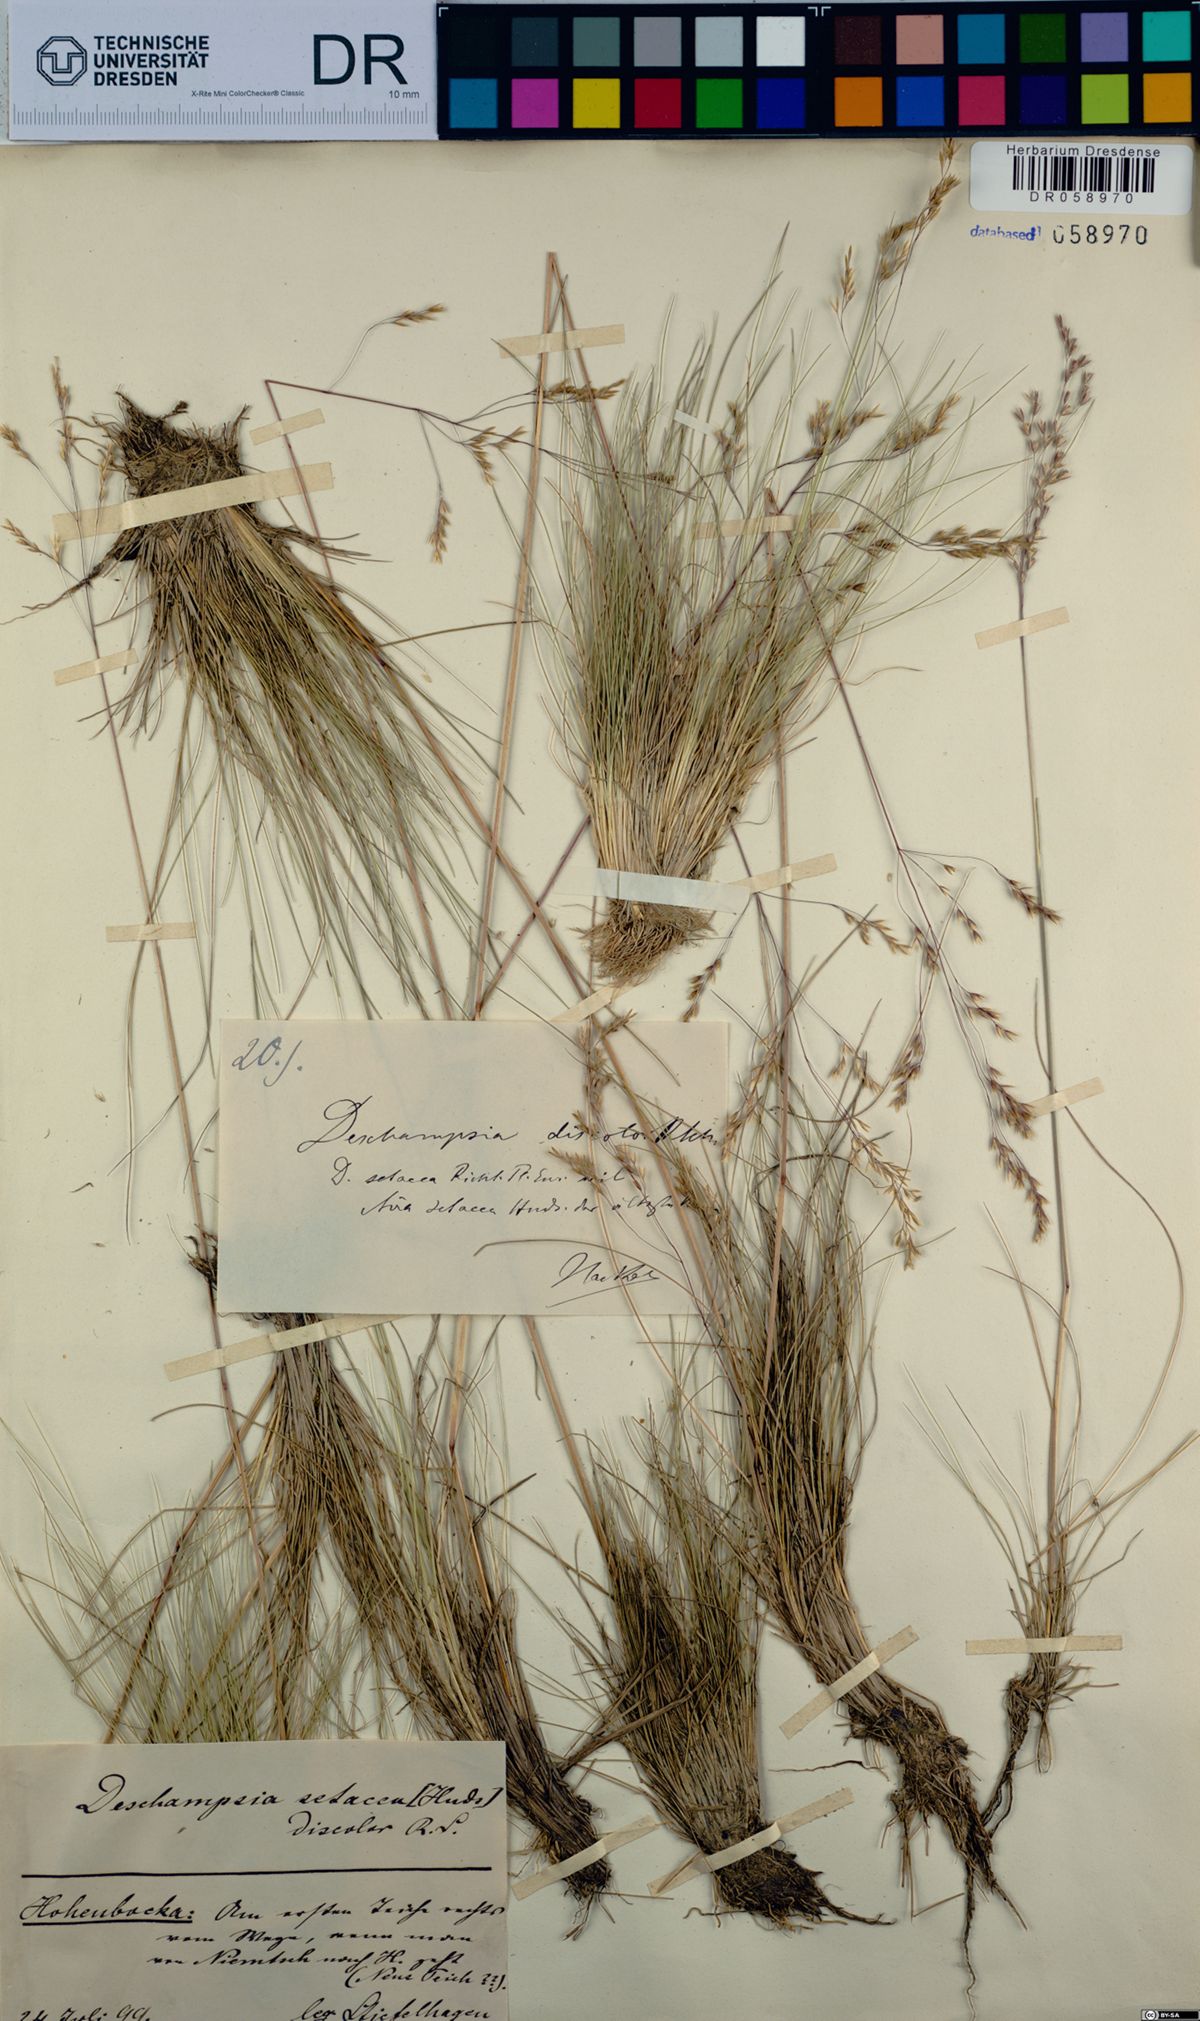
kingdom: Plantae
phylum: Tracheophyta
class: Liliopsida
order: Poales
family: Poaceae
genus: Deschampsia
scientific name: Deschampsia setacea
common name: Bog hair-grass
